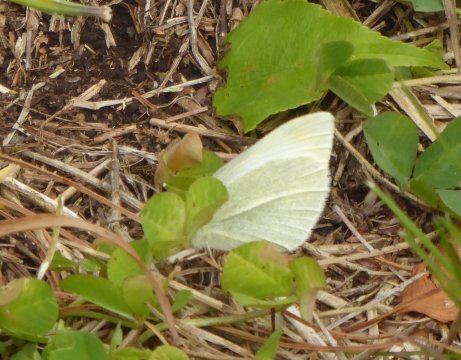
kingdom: Animalia
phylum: Arthropoda
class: Insecta
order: Lepidoptera
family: Pieridae
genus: Pieris
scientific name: Pieris rapae
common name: Cabbage White
